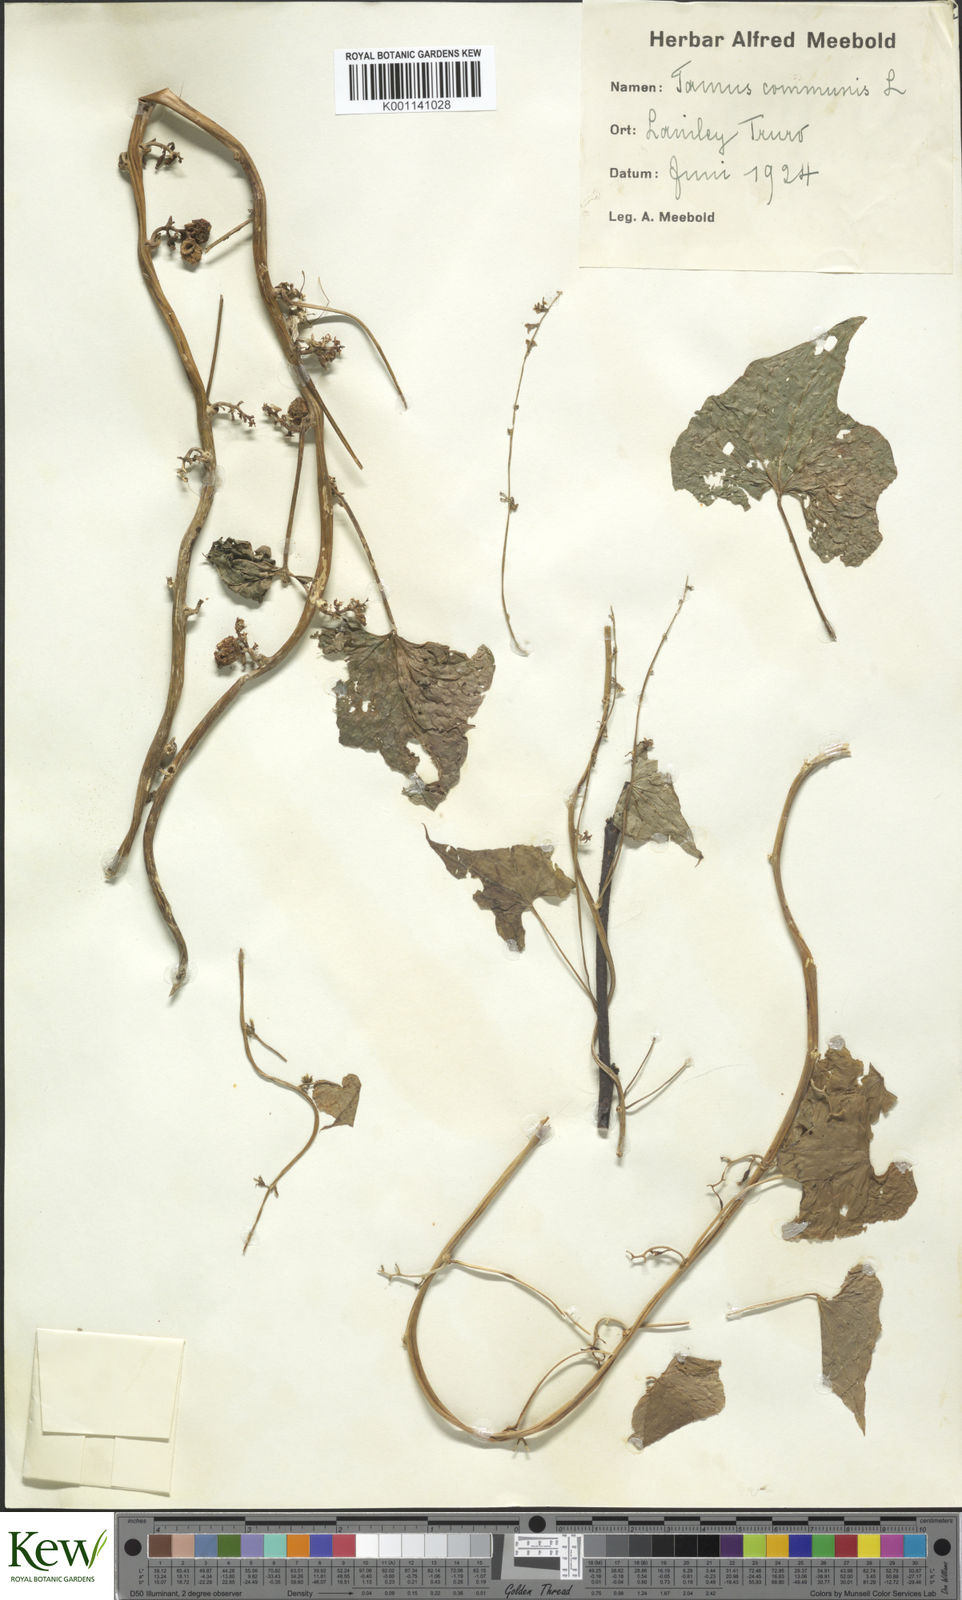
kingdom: Plantae
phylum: Tracheophyta
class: Liliopsida
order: Dioscoreales
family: Dioscoreaceae
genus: Dioscorea
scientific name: Dioscorea communis
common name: Black-bindweed
